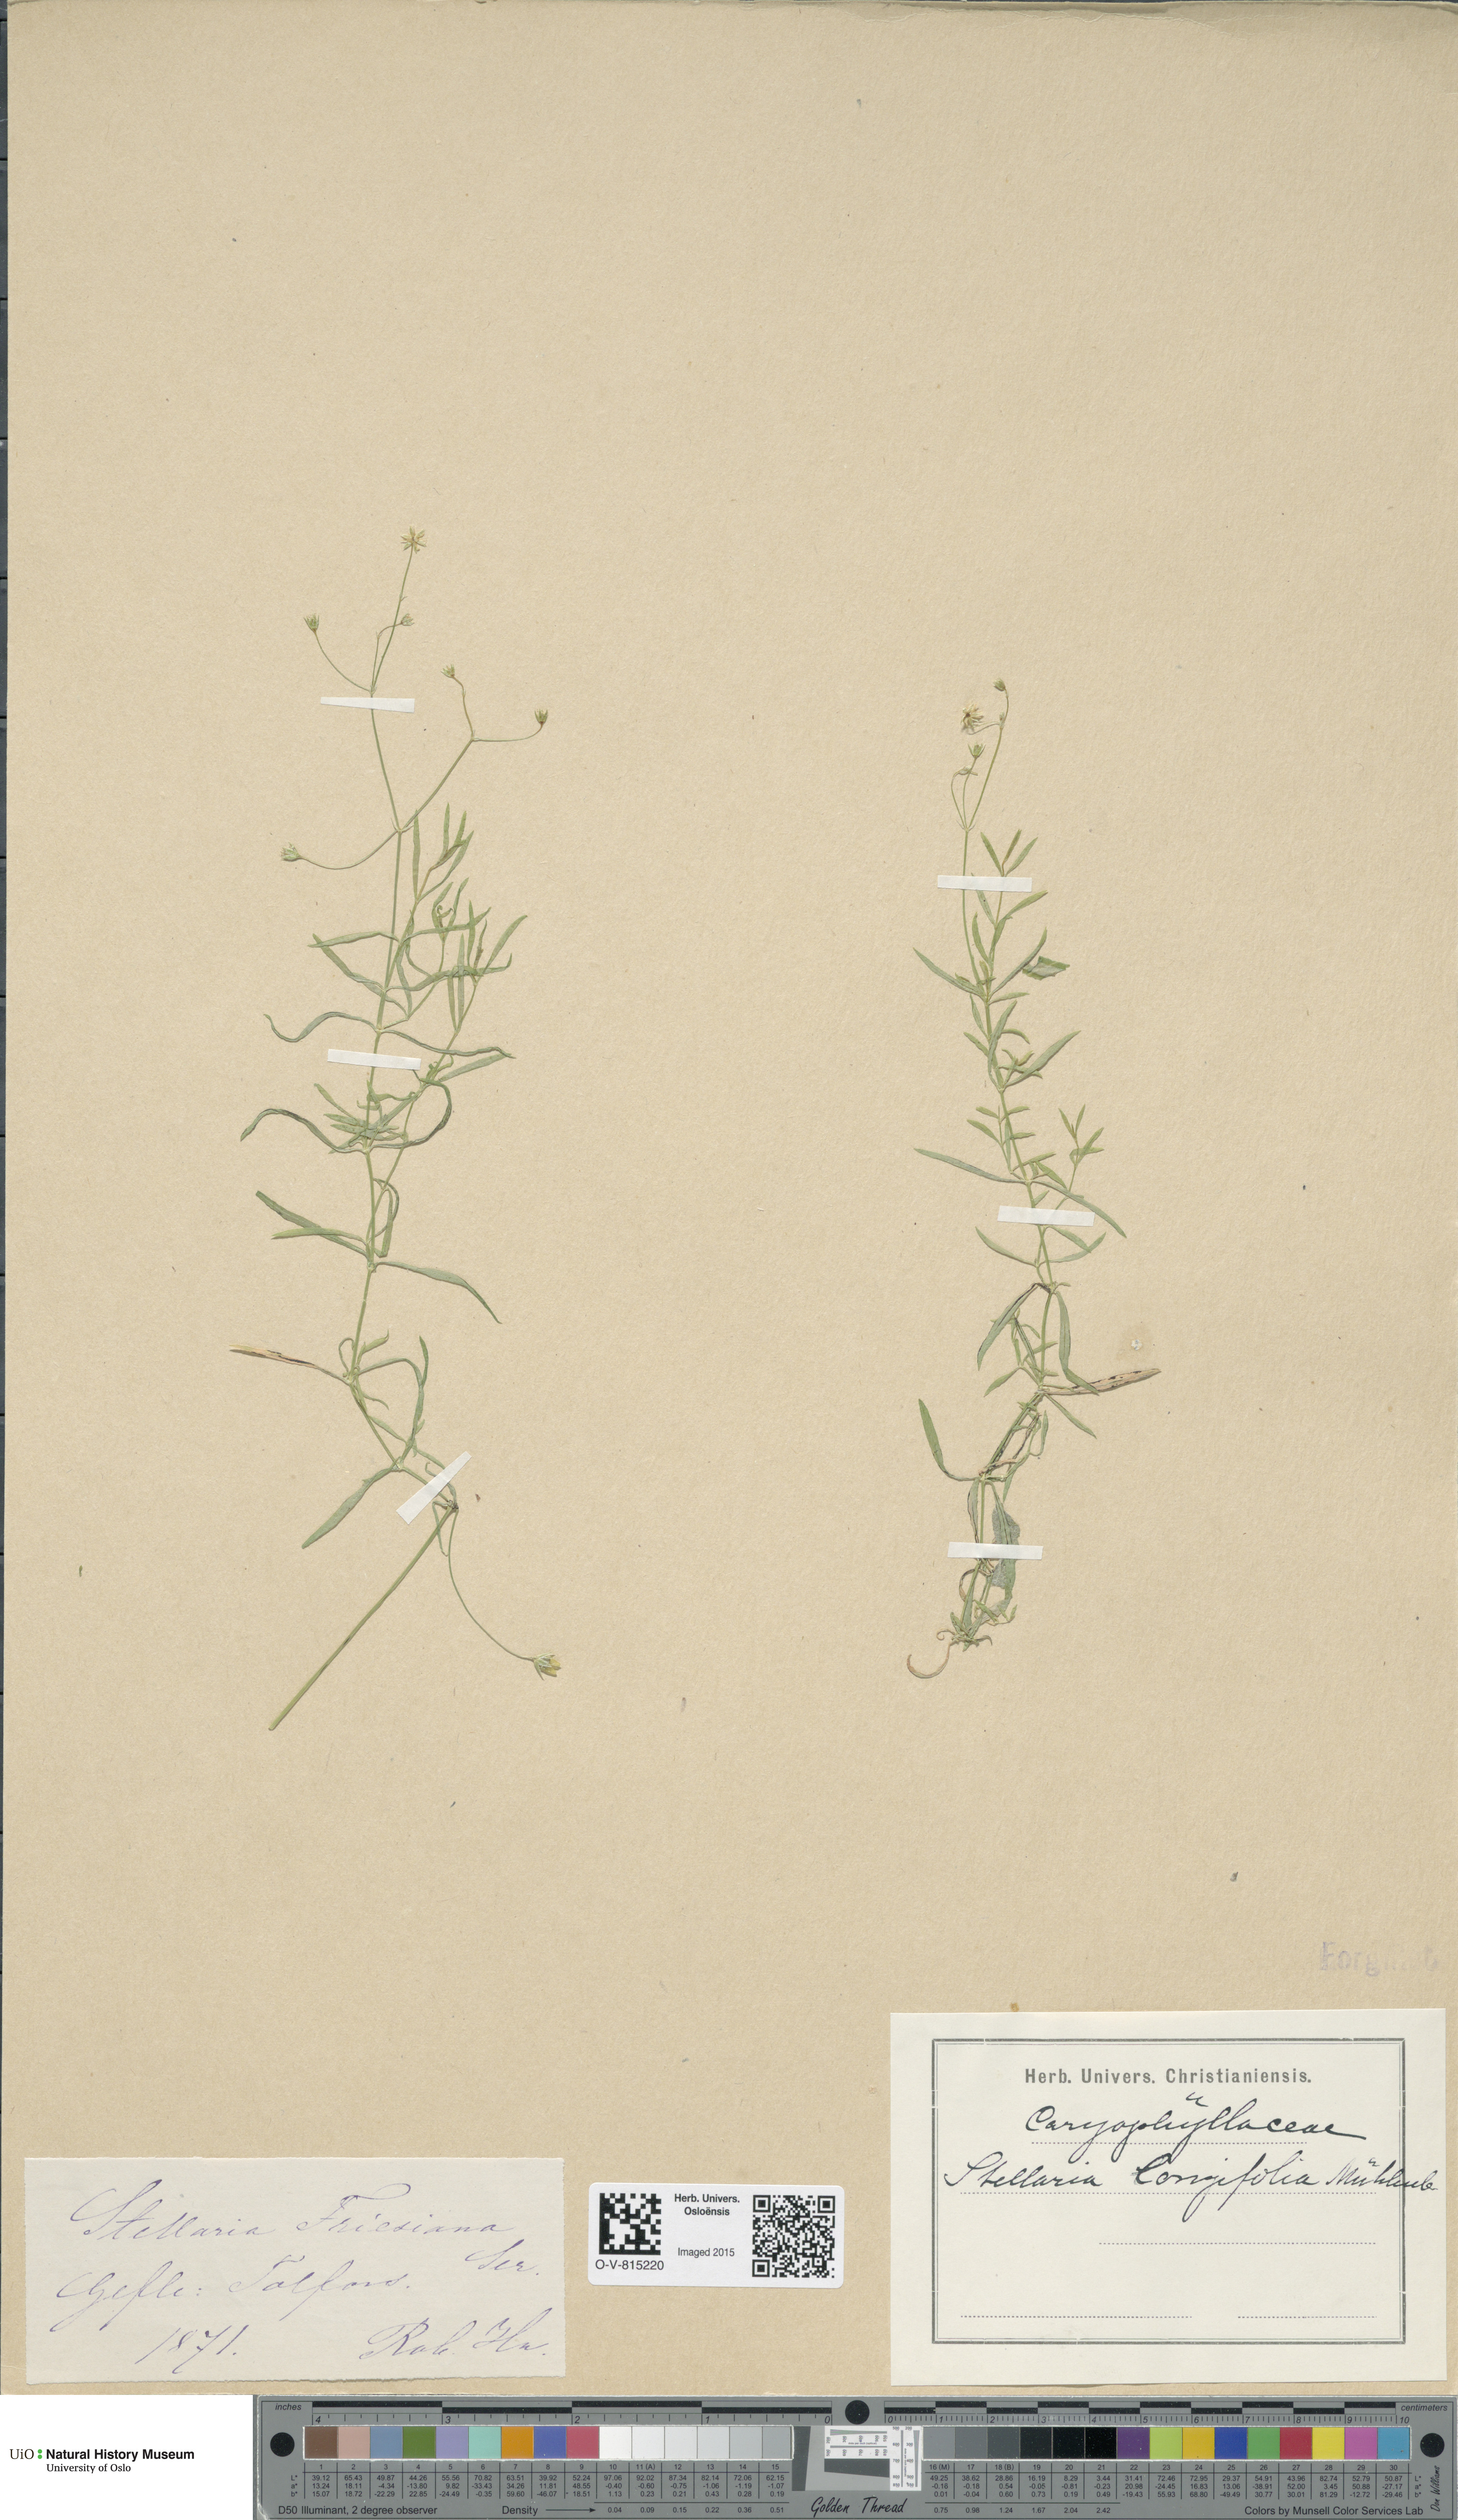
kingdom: Plantae
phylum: Tracheophyta
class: Magnoliopsida
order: Caryophyllales
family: Caryophyllaceae
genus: Stellaria
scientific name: Stellaria longifolia
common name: Long-leaved chickweed
